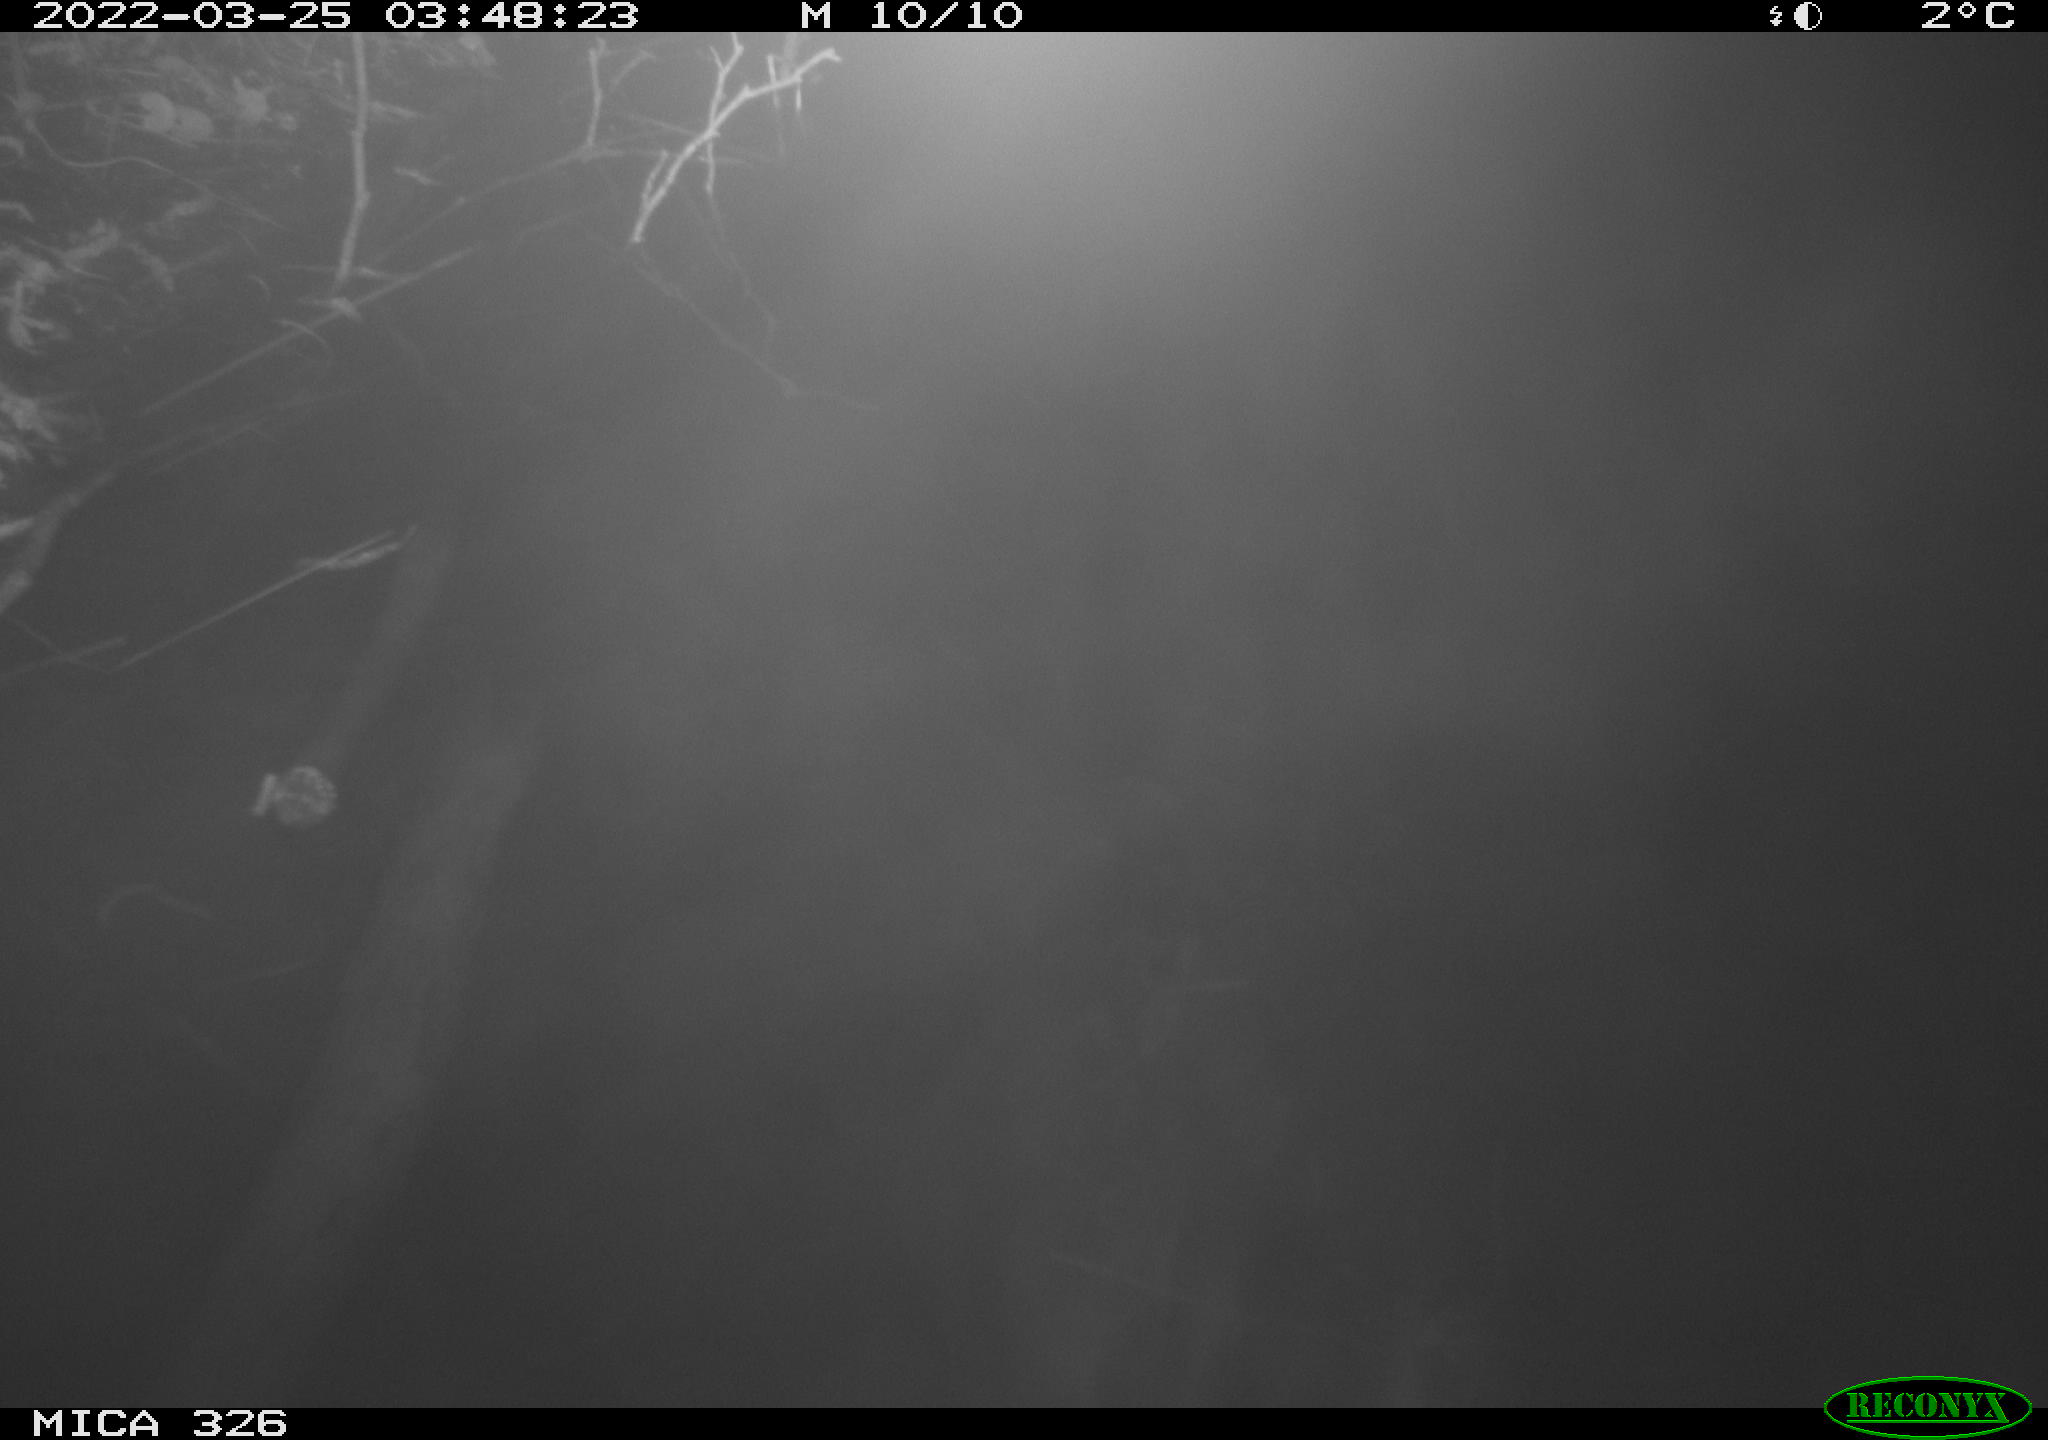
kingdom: Animalia
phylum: Chordata
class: Mammalia
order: Rodentia
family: Muridae
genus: Rattus
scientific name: Rattus norvegicus
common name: Brown rat
